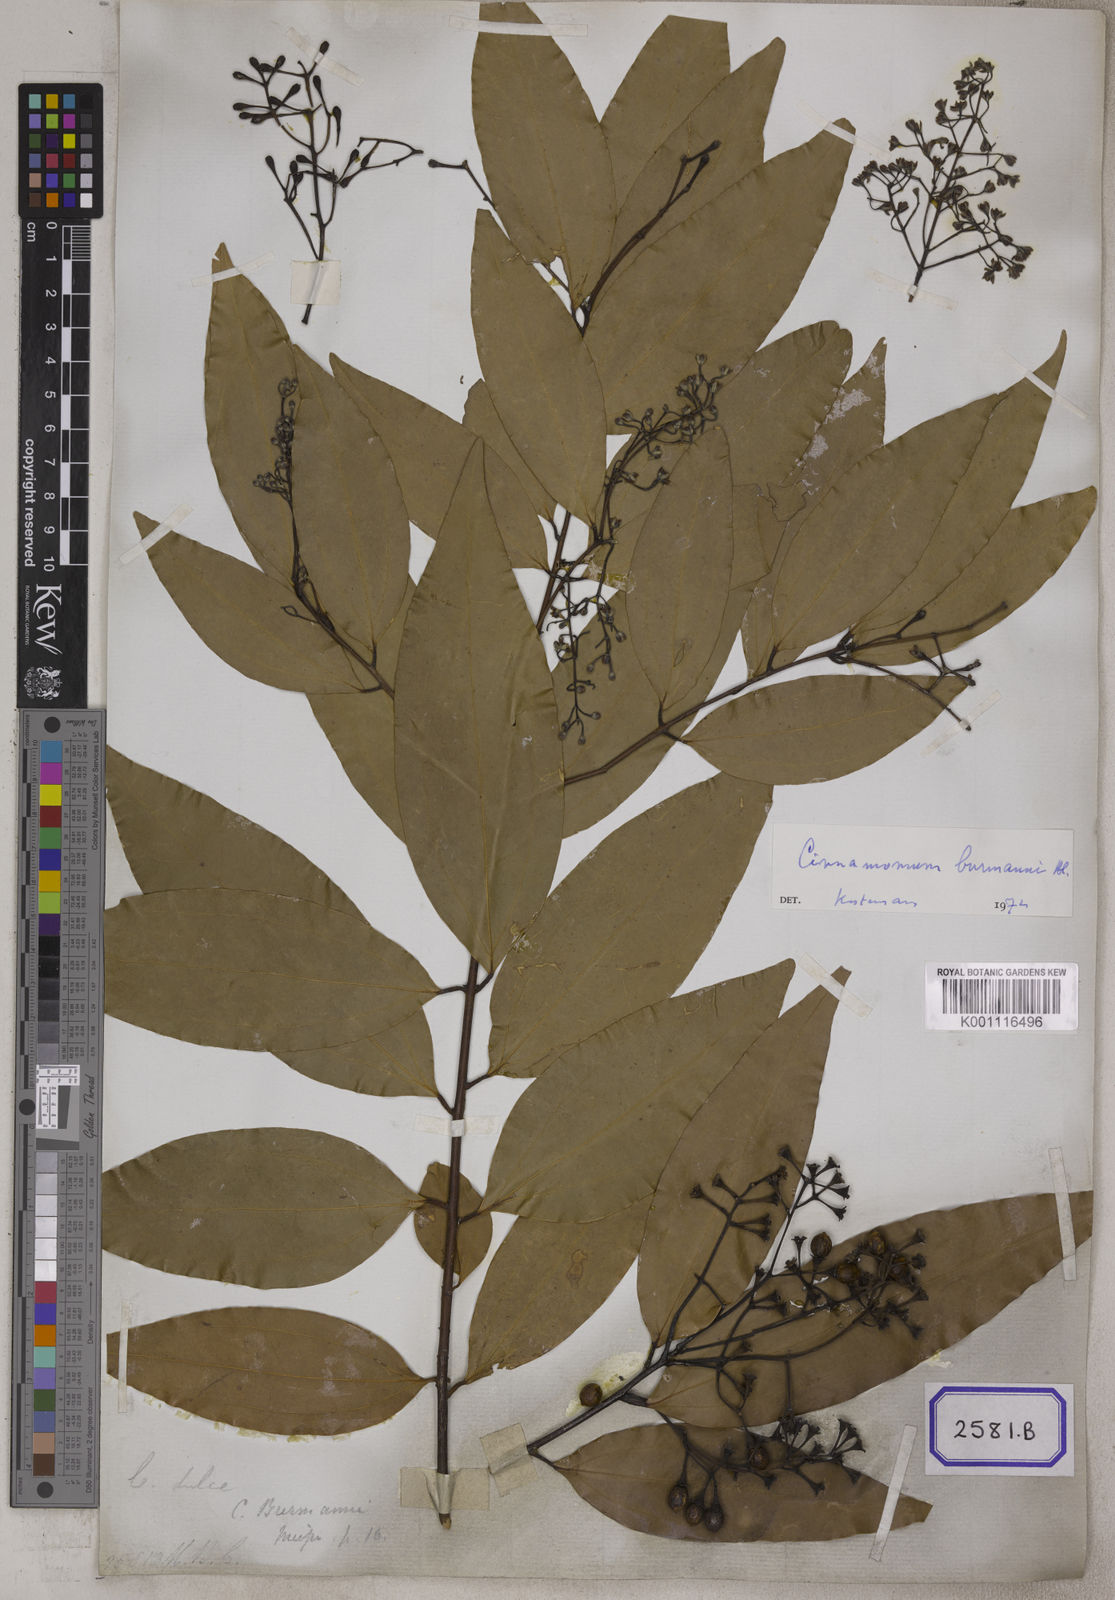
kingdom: Plantae
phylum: Tracheophyta
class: Magnoliopsida
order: Laurales
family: Lauraceae
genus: Cinnamomum
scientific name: Cinnamomum dubium
